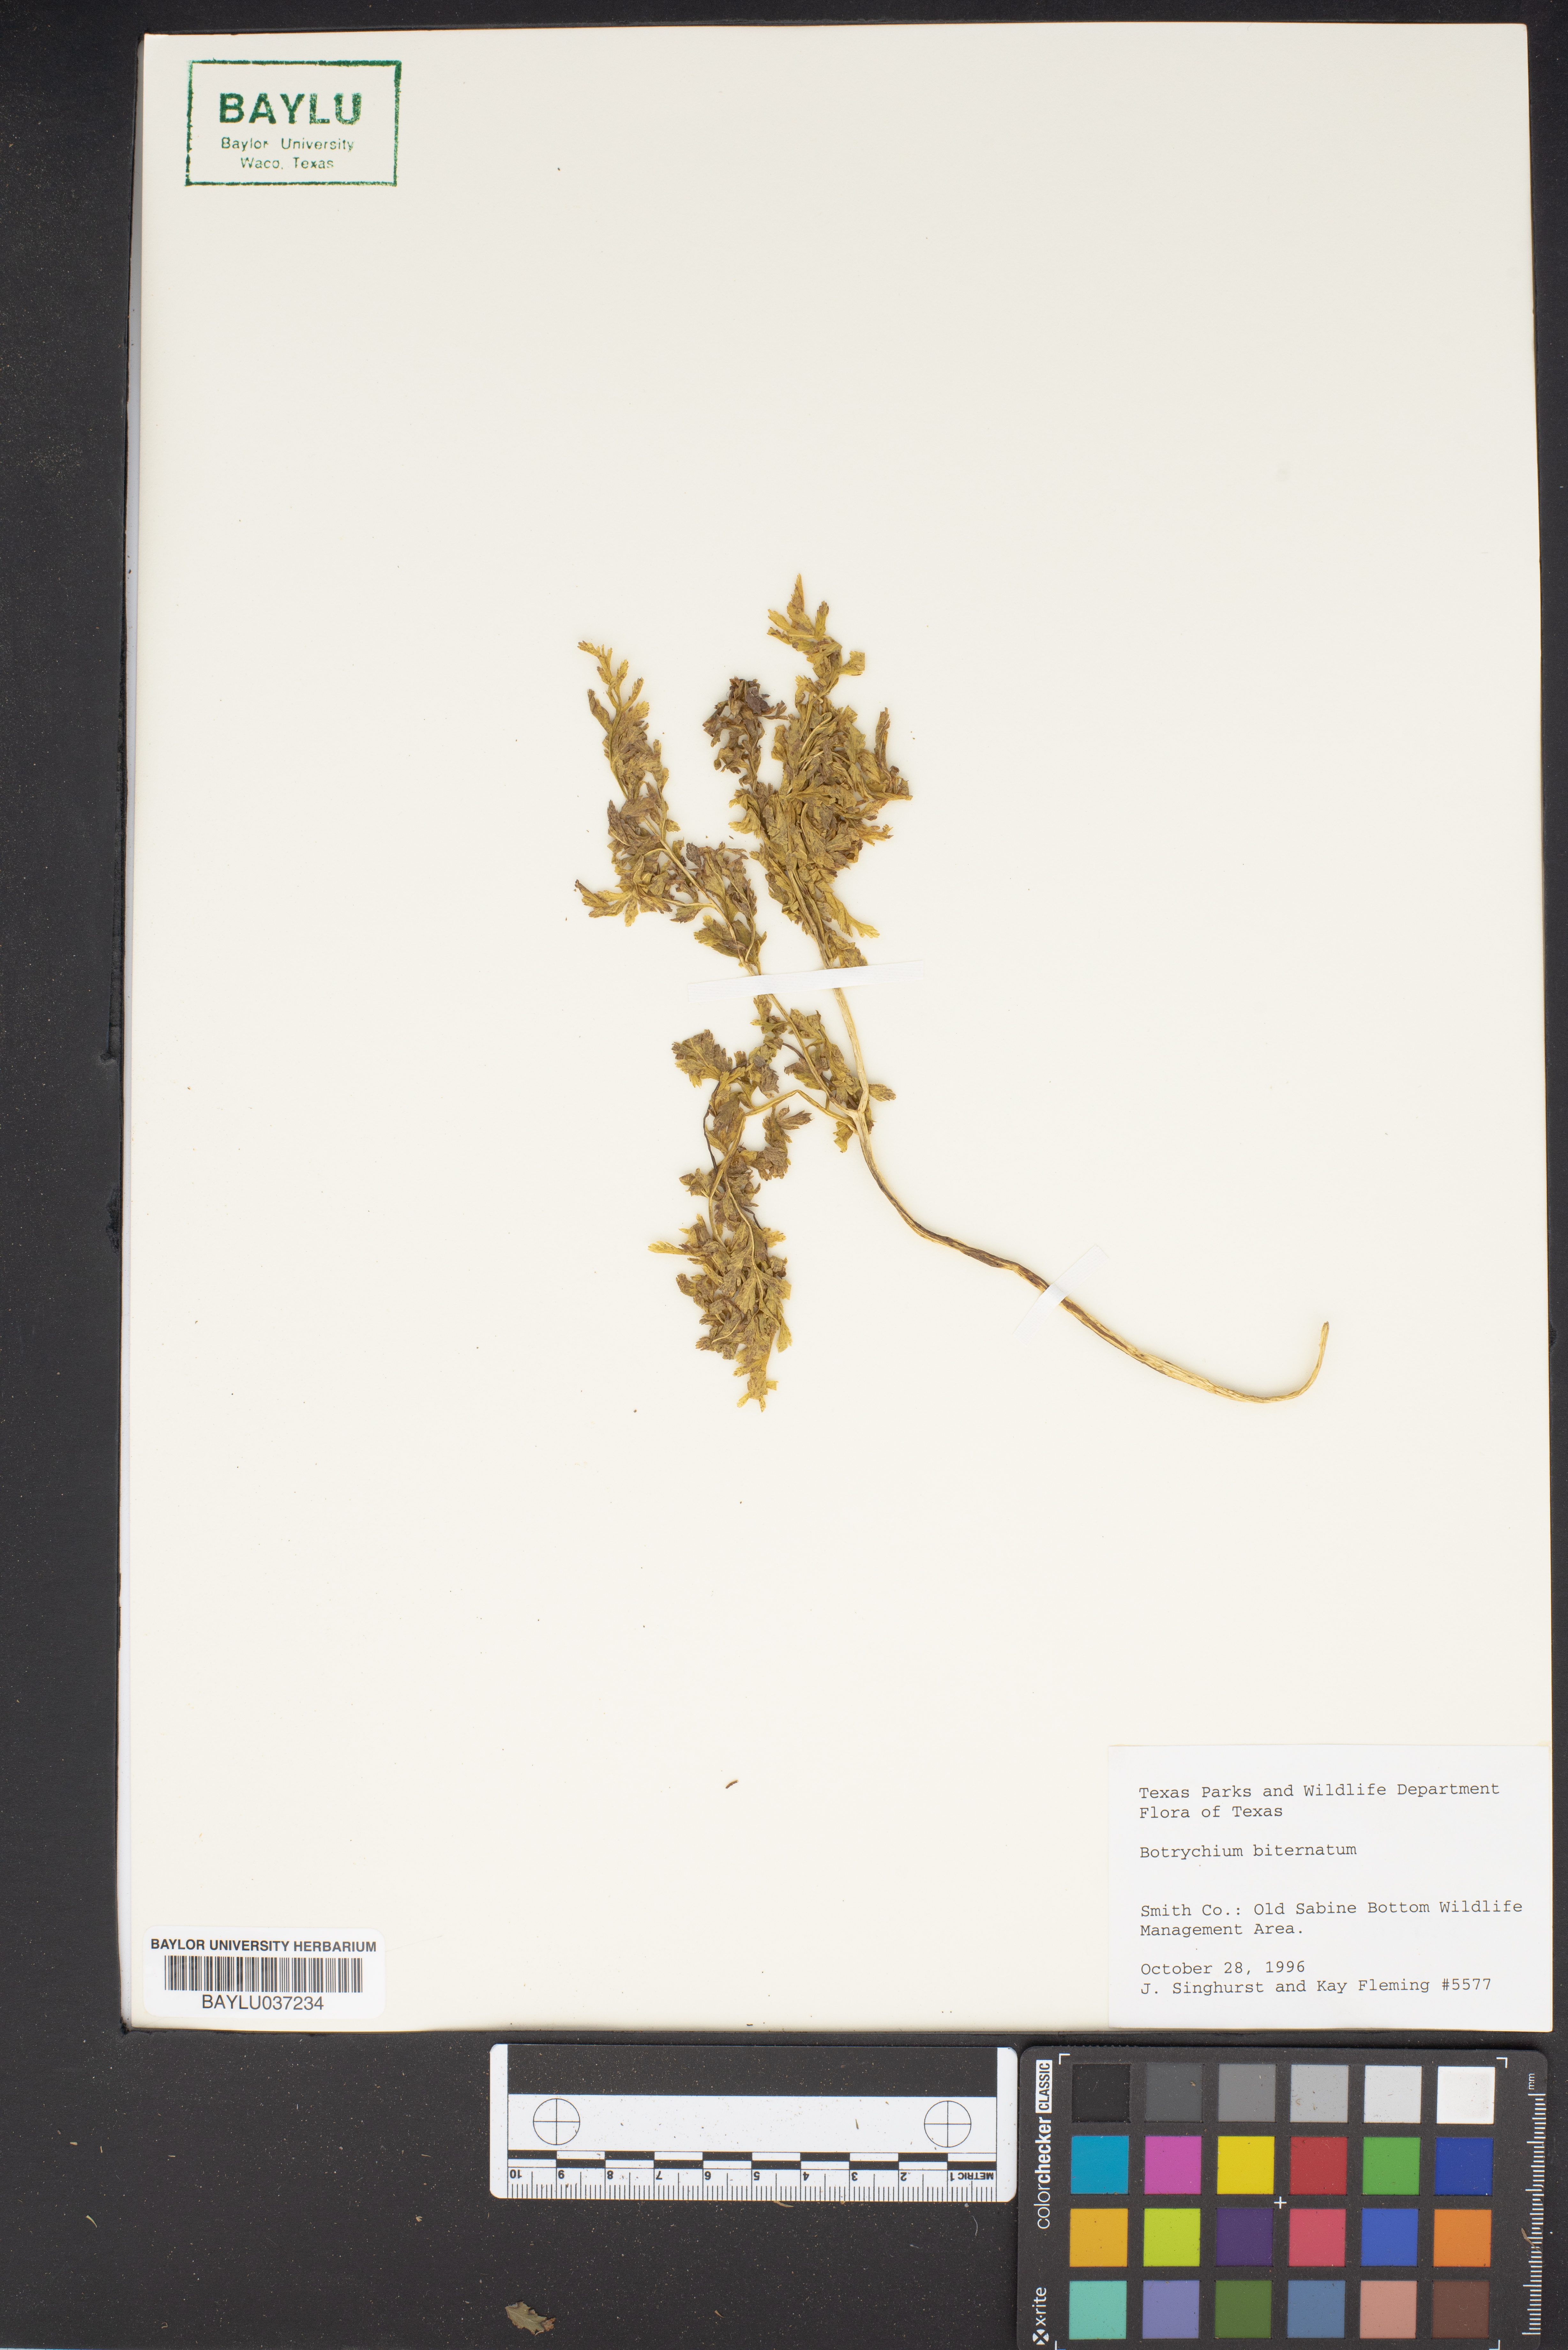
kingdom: Plantae
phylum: Tracheophyta
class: Polypodiopsida
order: Ophioglossales
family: Ophioglossaceae
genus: Sceptridium
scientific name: Sceptridium biternatum
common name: Sparse-lobed grapefern
